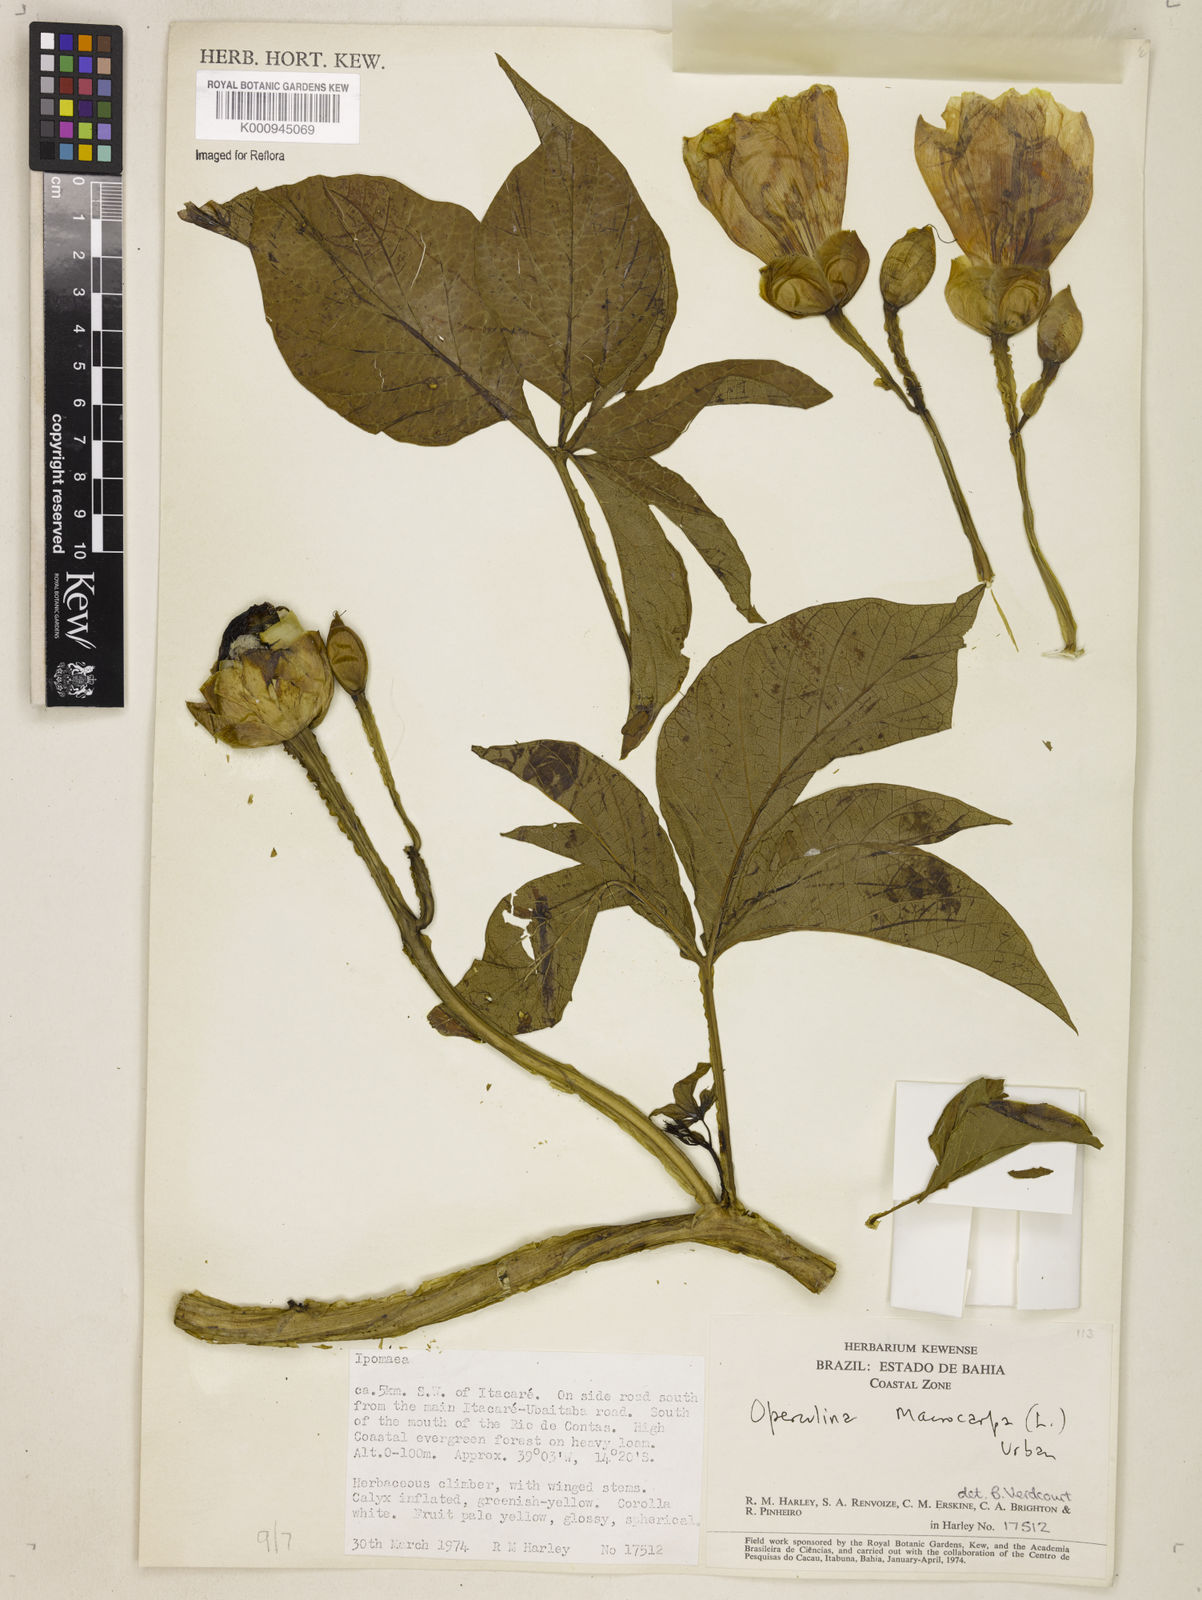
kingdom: Plantae
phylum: Tracheophyta
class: Magnoliopsida
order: Solanales
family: Convolvulaceae
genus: Operculina
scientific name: Operculina macrocarpa
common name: Brazilian jalap
